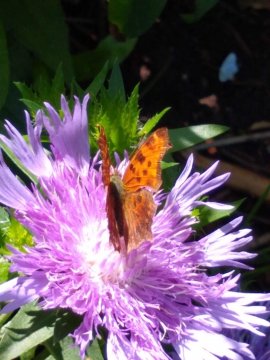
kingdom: Animalia
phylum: Arthropoda
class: Insecta
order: Lepidoptera
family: Nymphalidae
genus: Polygonia
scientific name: Polygonia comma
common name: Eastern Comma
